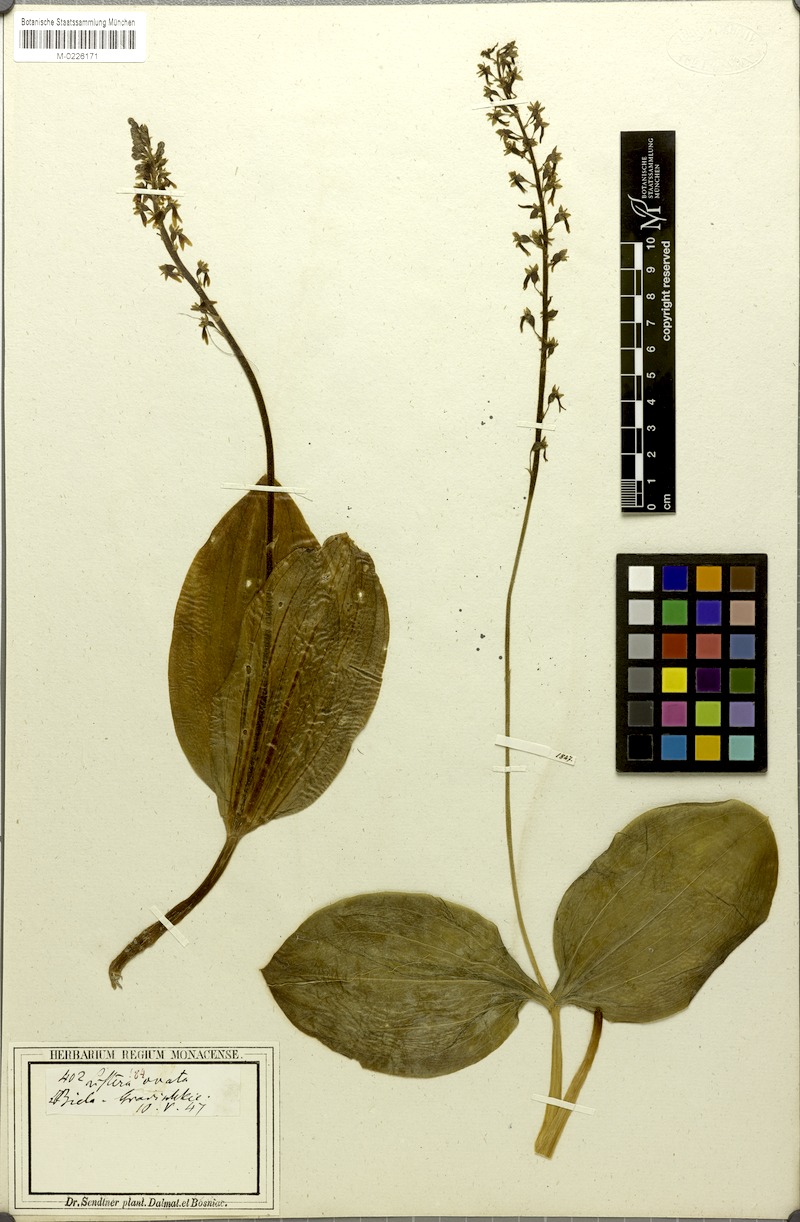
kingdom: Plantae
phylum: Tracheophyta
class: Liliopsida
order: Asparagales
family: Orchidaceae
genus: Neottia
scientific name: Neottia ovata
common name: Common twayblade
